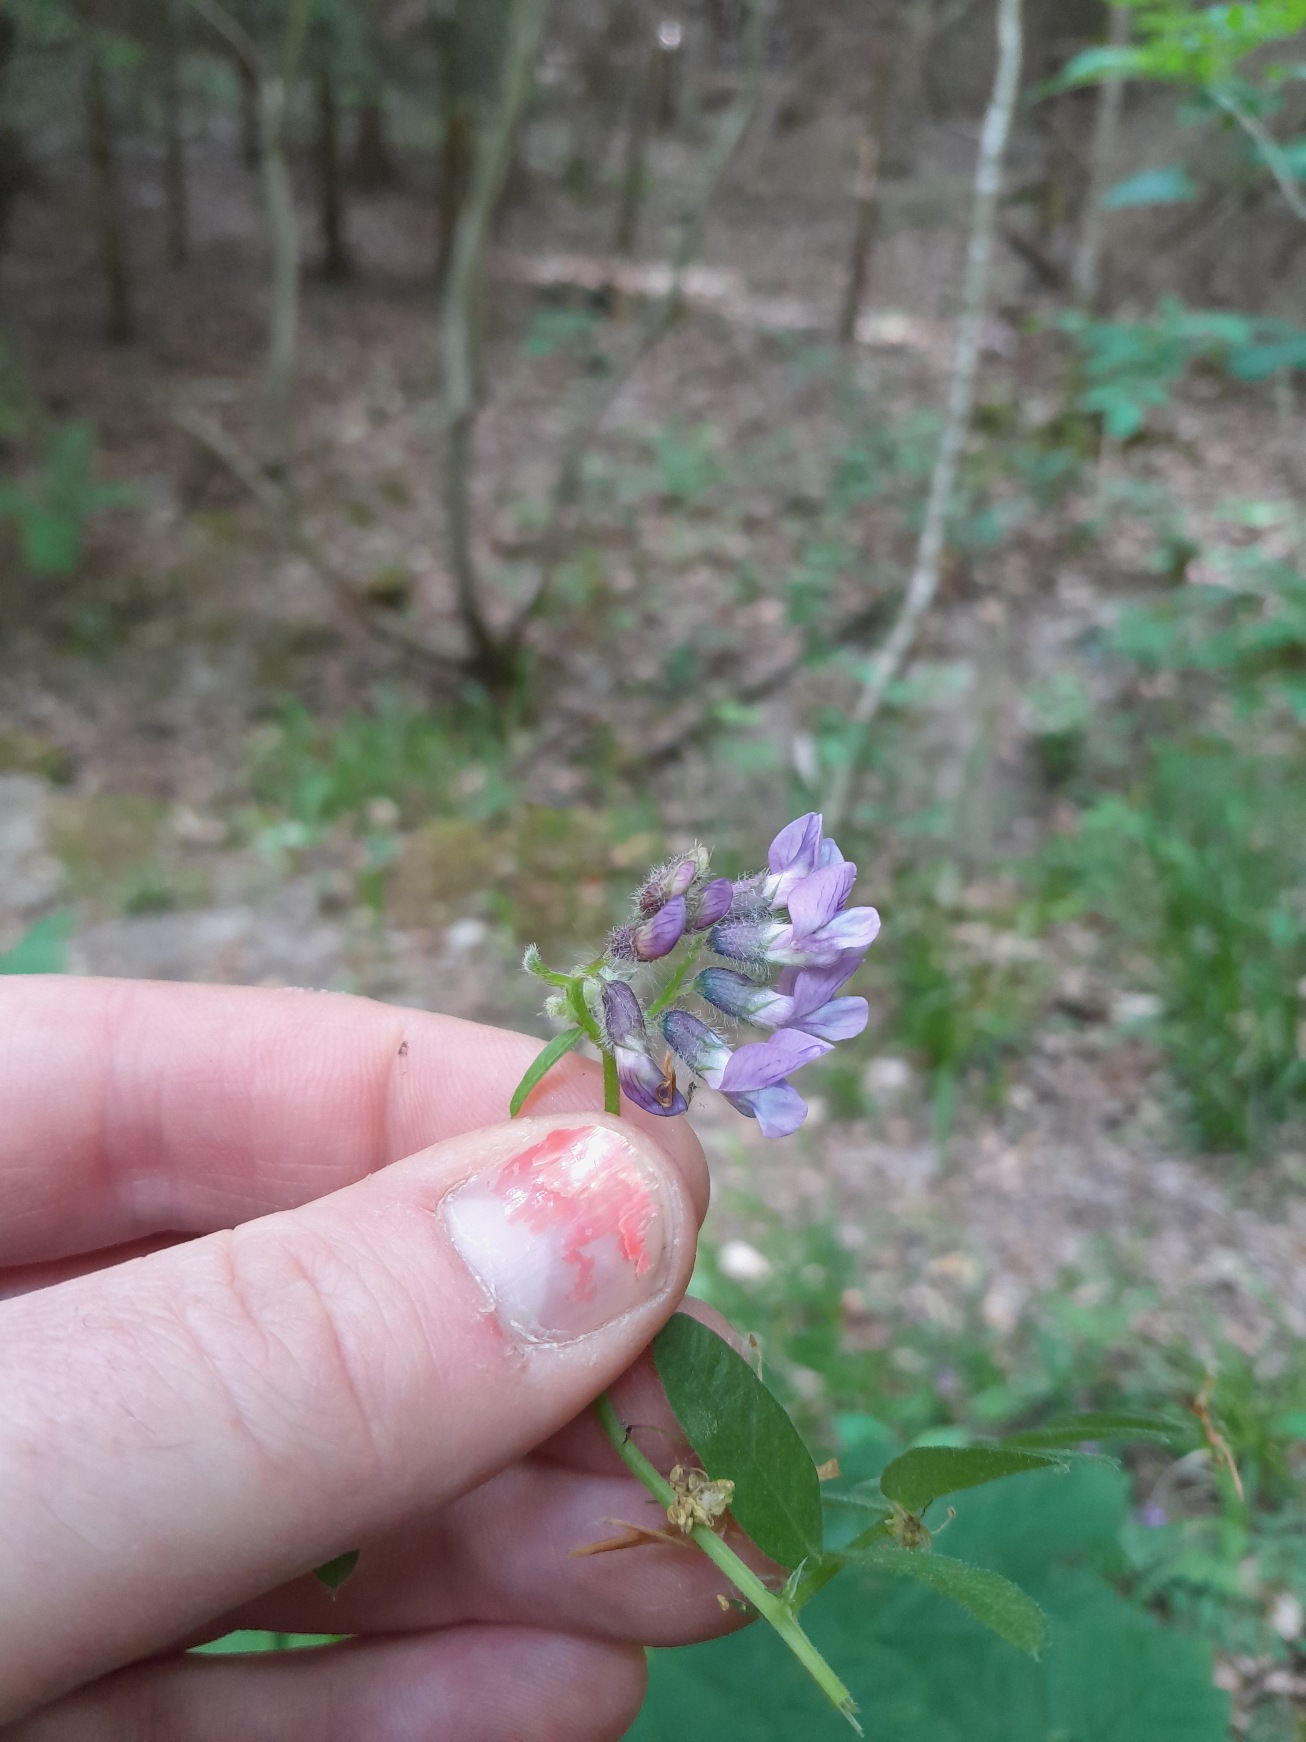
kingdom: Plantae
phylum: Tracheophyta
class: Magnoliopsida
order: Fabales
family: Fabaceae
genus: Vicia
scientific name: Vicia sepium
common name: Gærde-vikke
